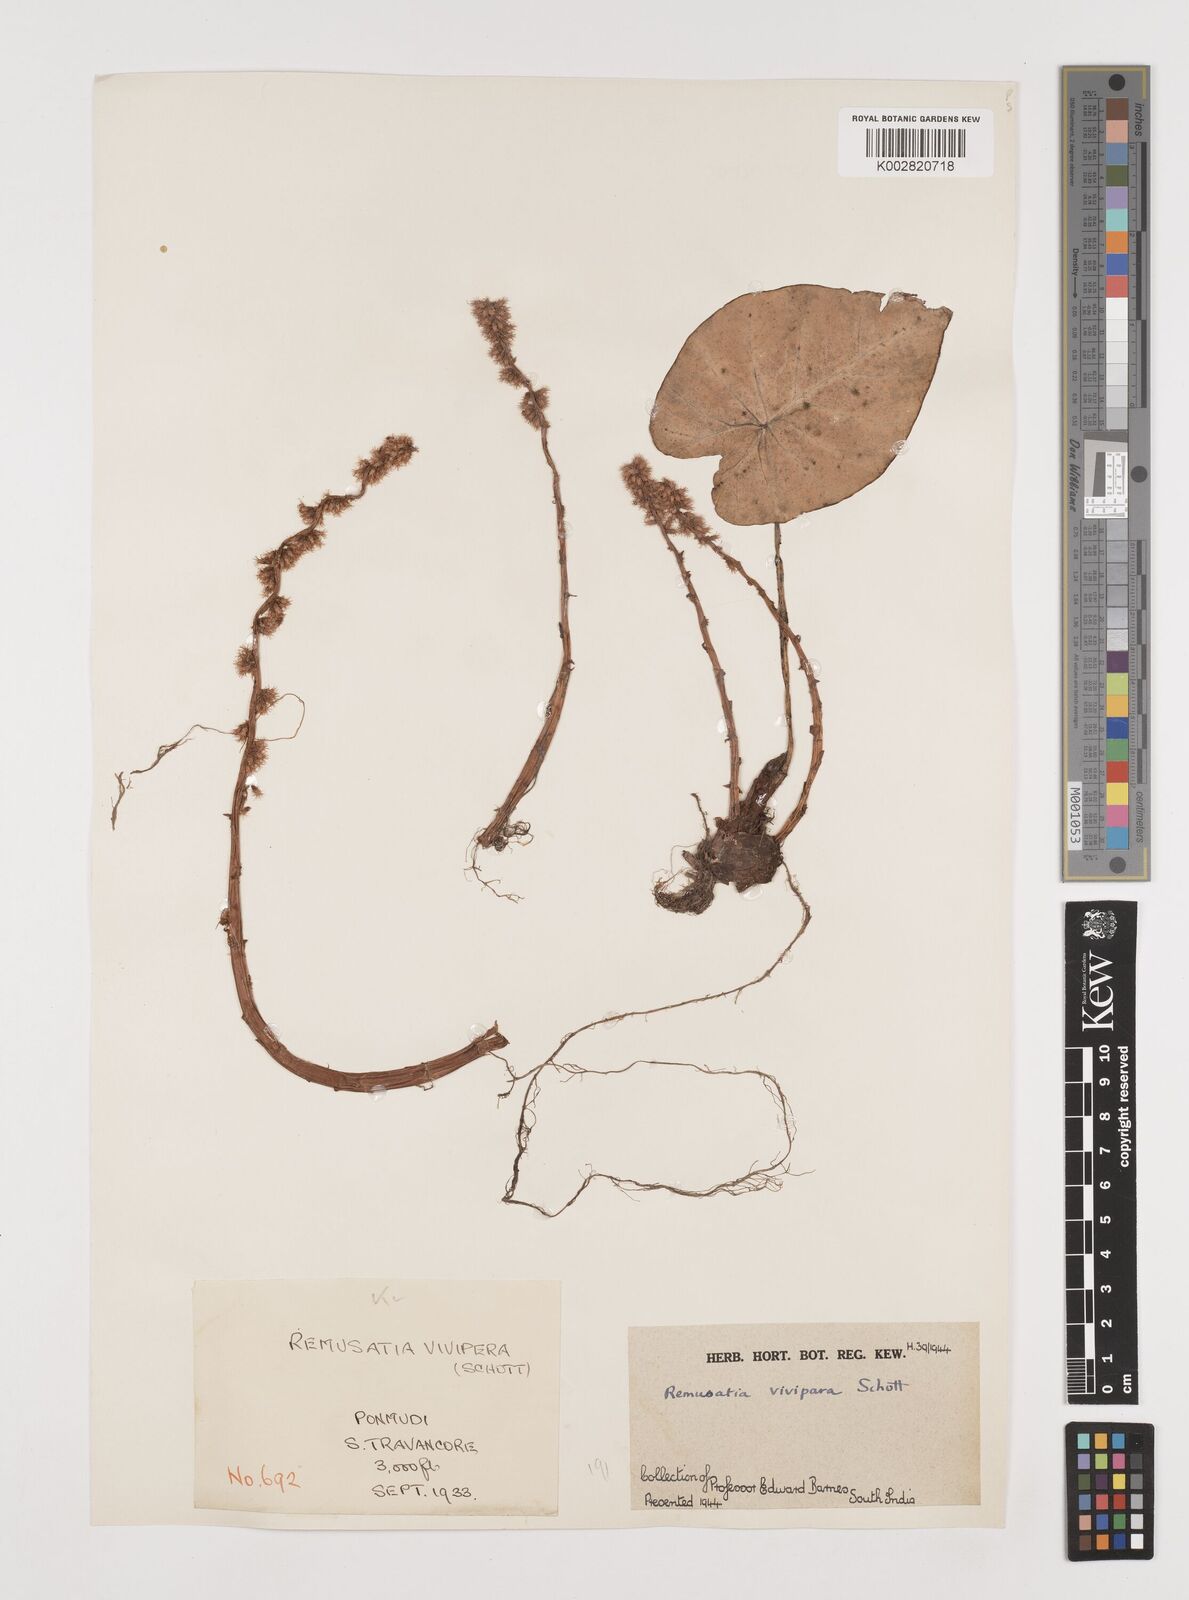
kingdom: Plantae
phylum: Tracheophyta
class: Liliopsida
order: Alismatales
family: Araceae
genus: Remusatia
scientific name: Remusatia vivipara
